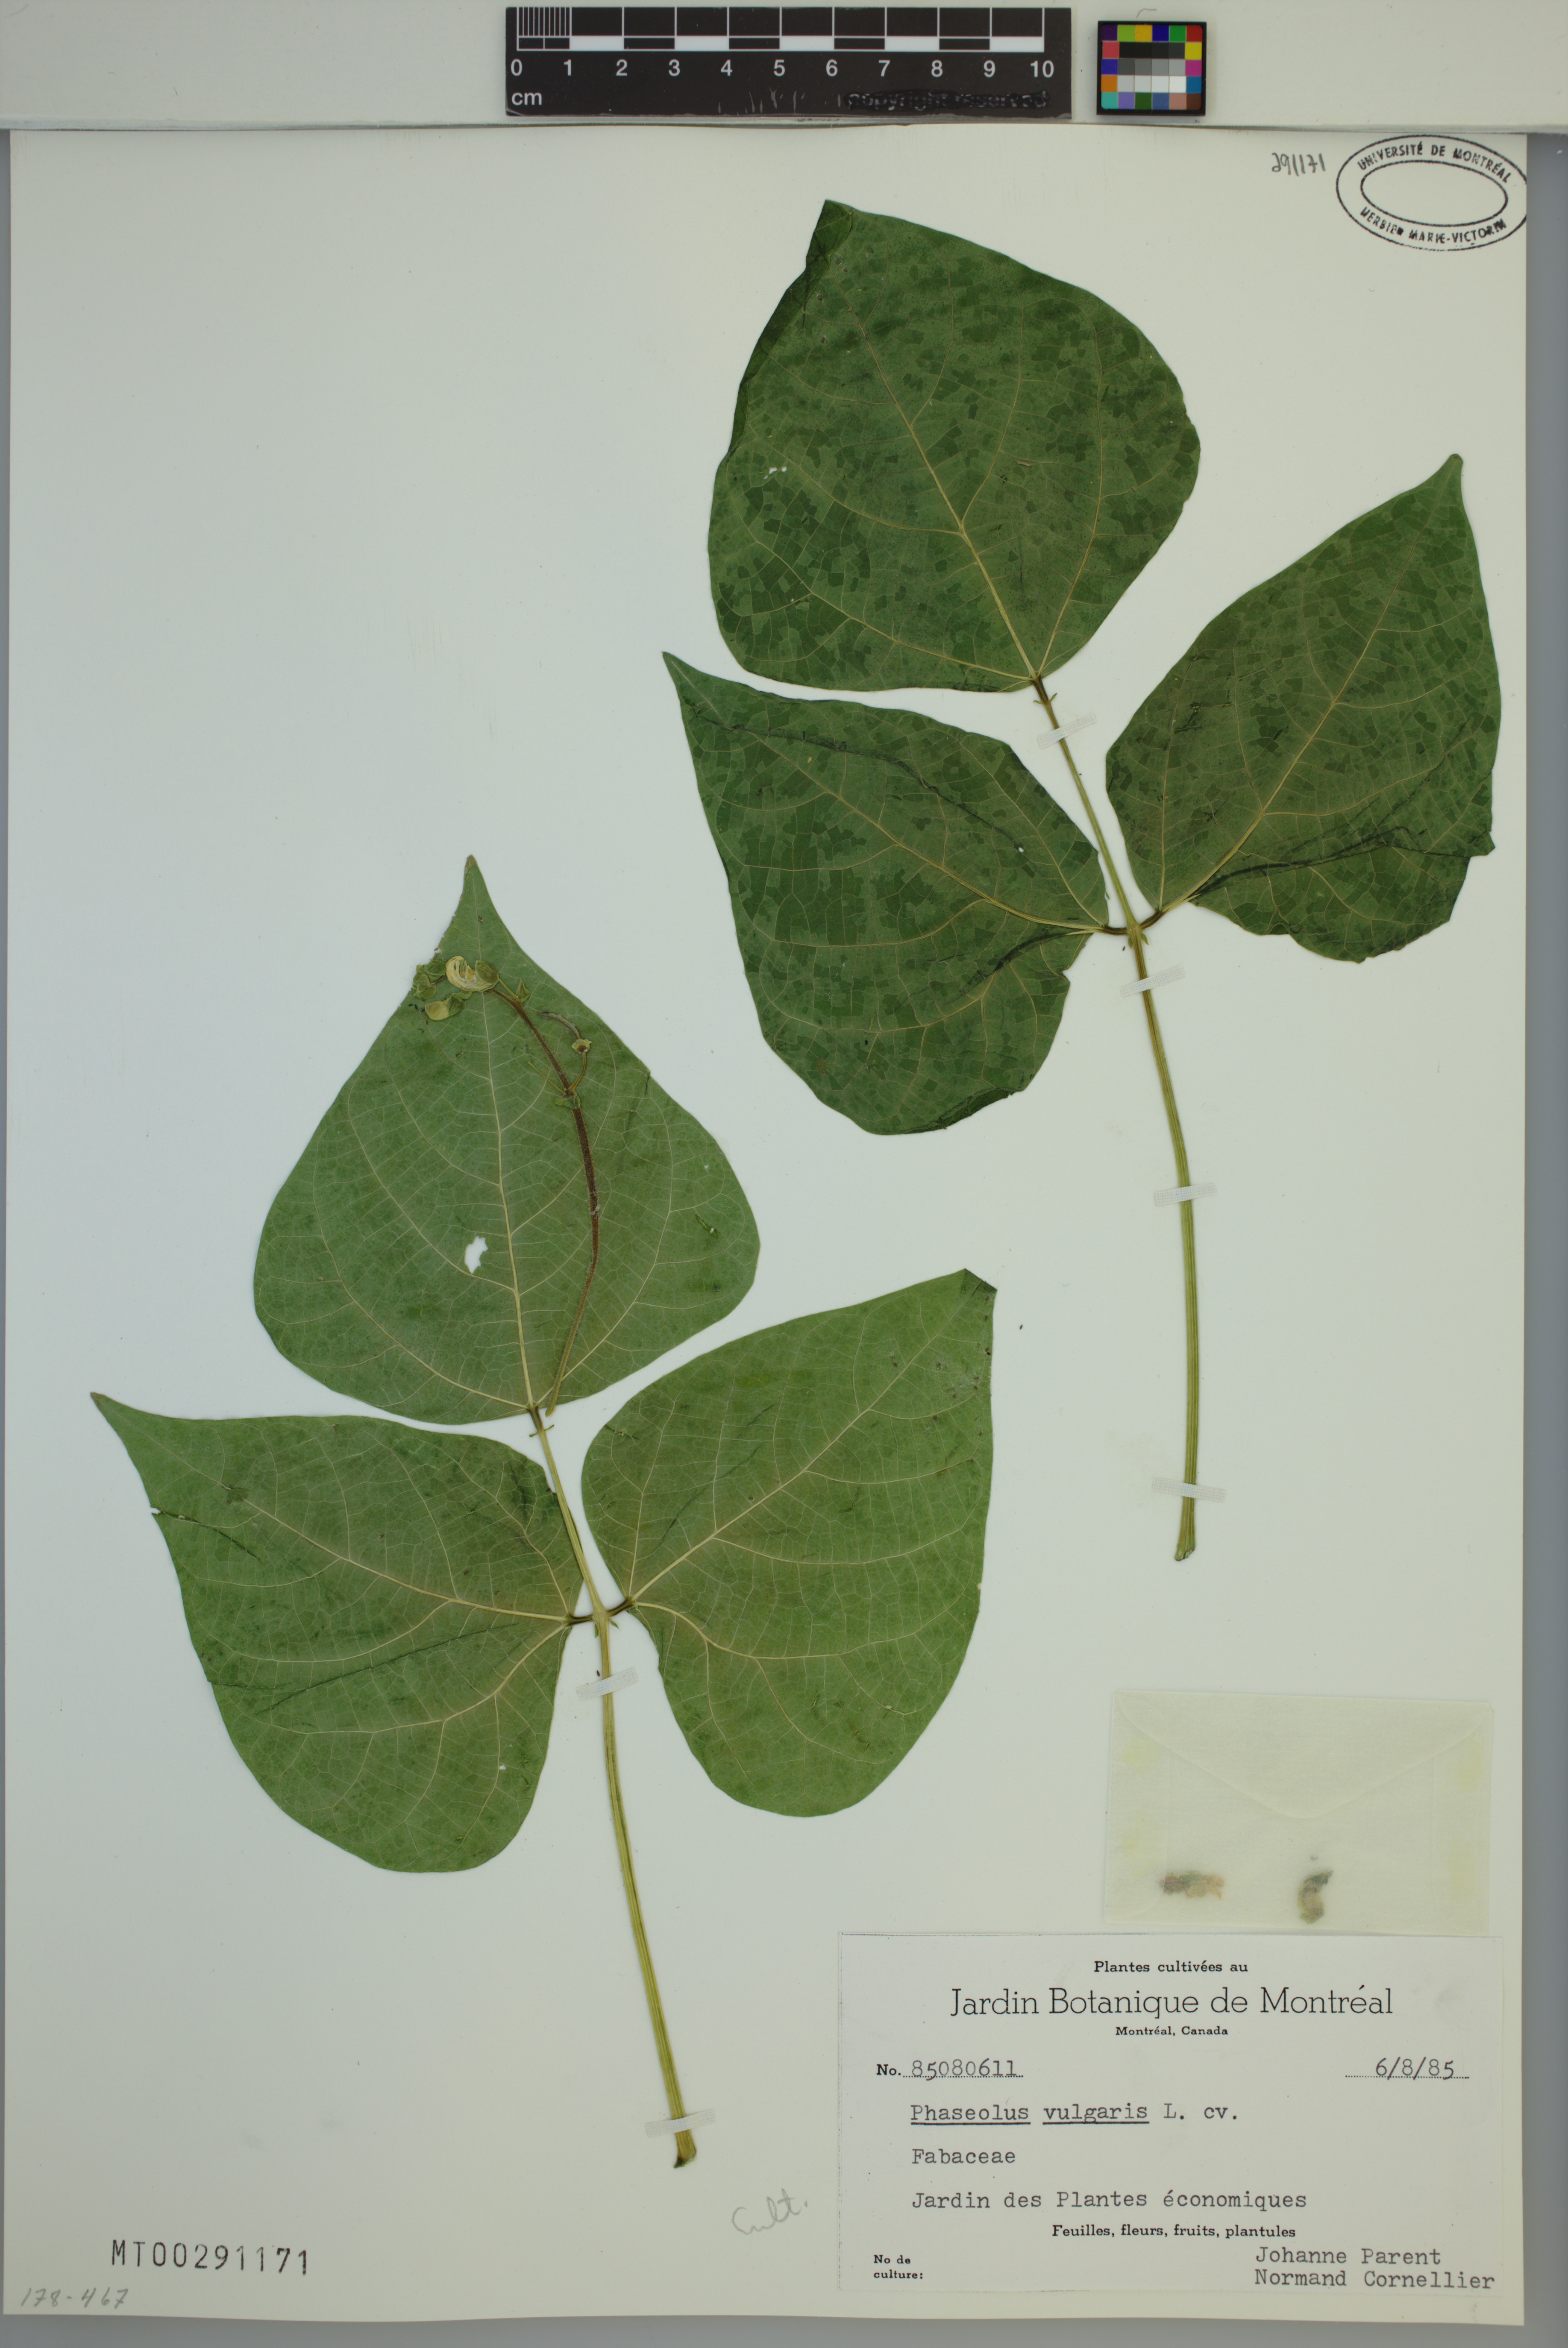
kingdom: Plantae
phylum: Tracheophyta
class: Magnoliopsida
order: Fabales
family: Fabaceae
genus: Phaseolus
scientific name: Phaseolus vulgaris
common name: Bean
